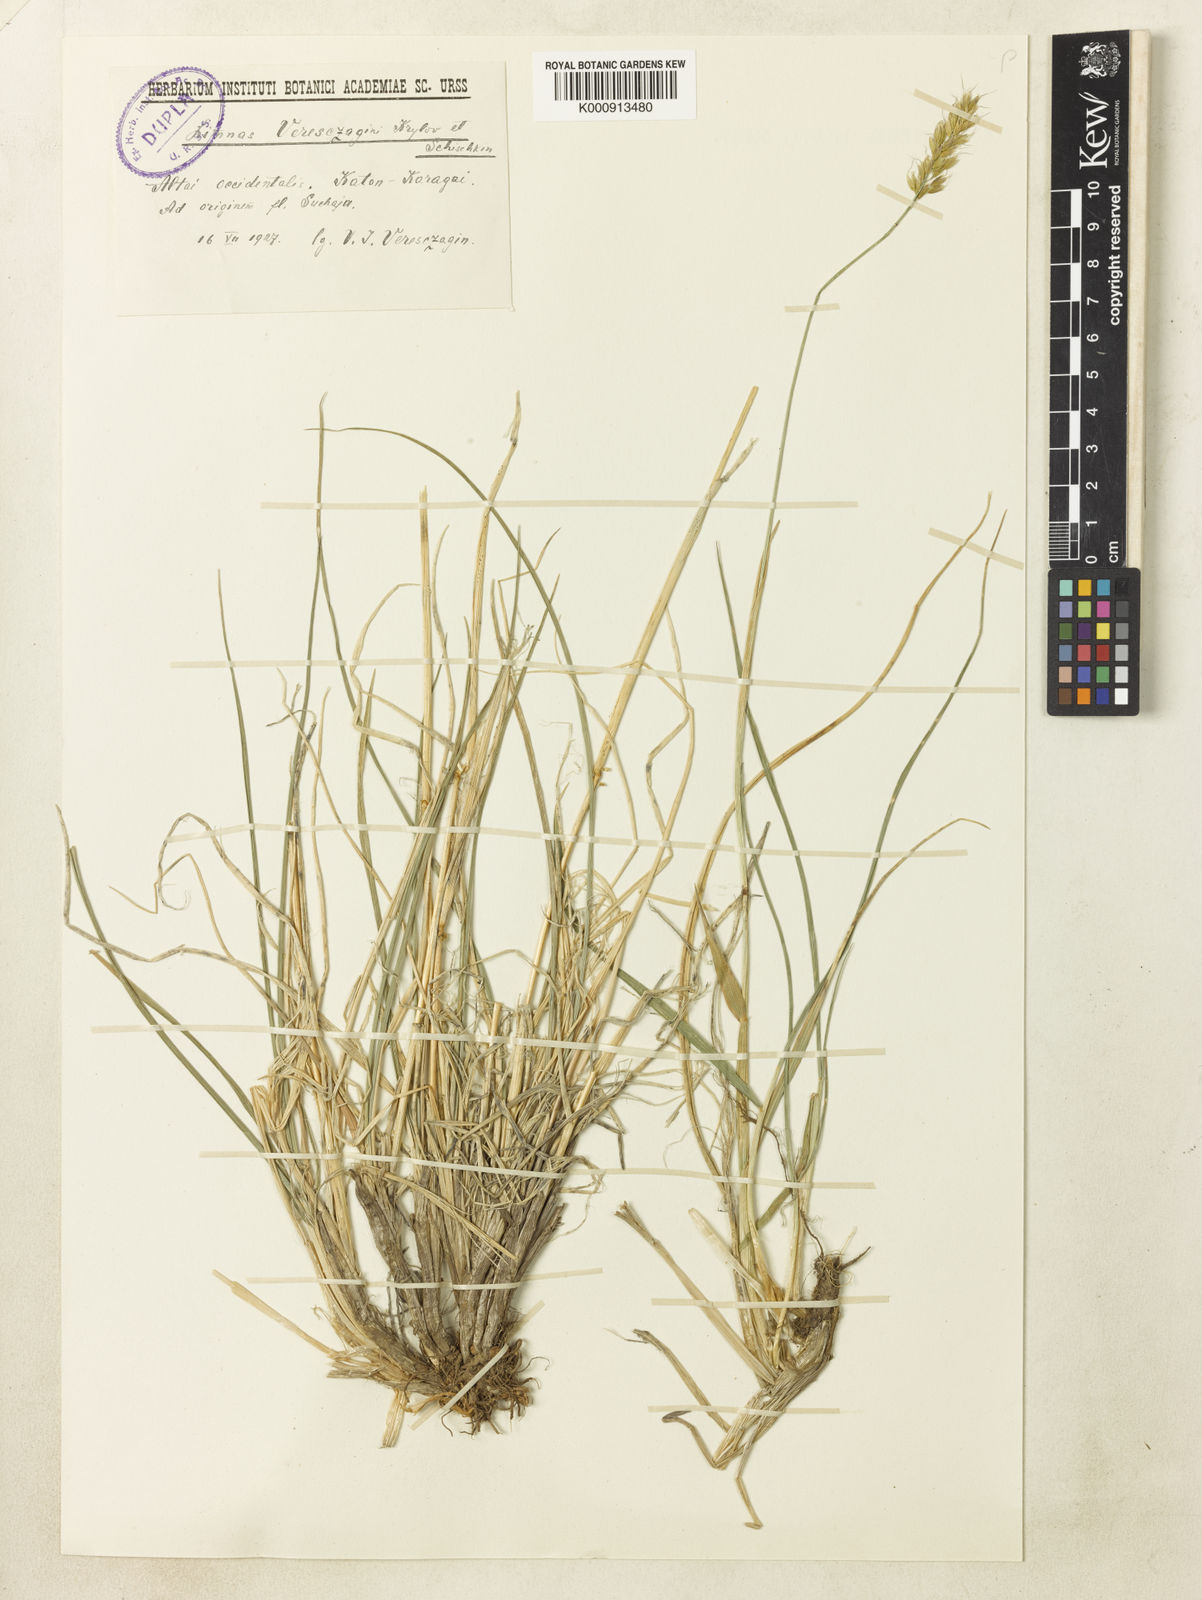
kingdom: Plantae
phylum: Tracheophyta
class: Liliopsida
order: Poales
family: Poaceae
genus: Limnas
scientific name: Limnas veresczaginii
